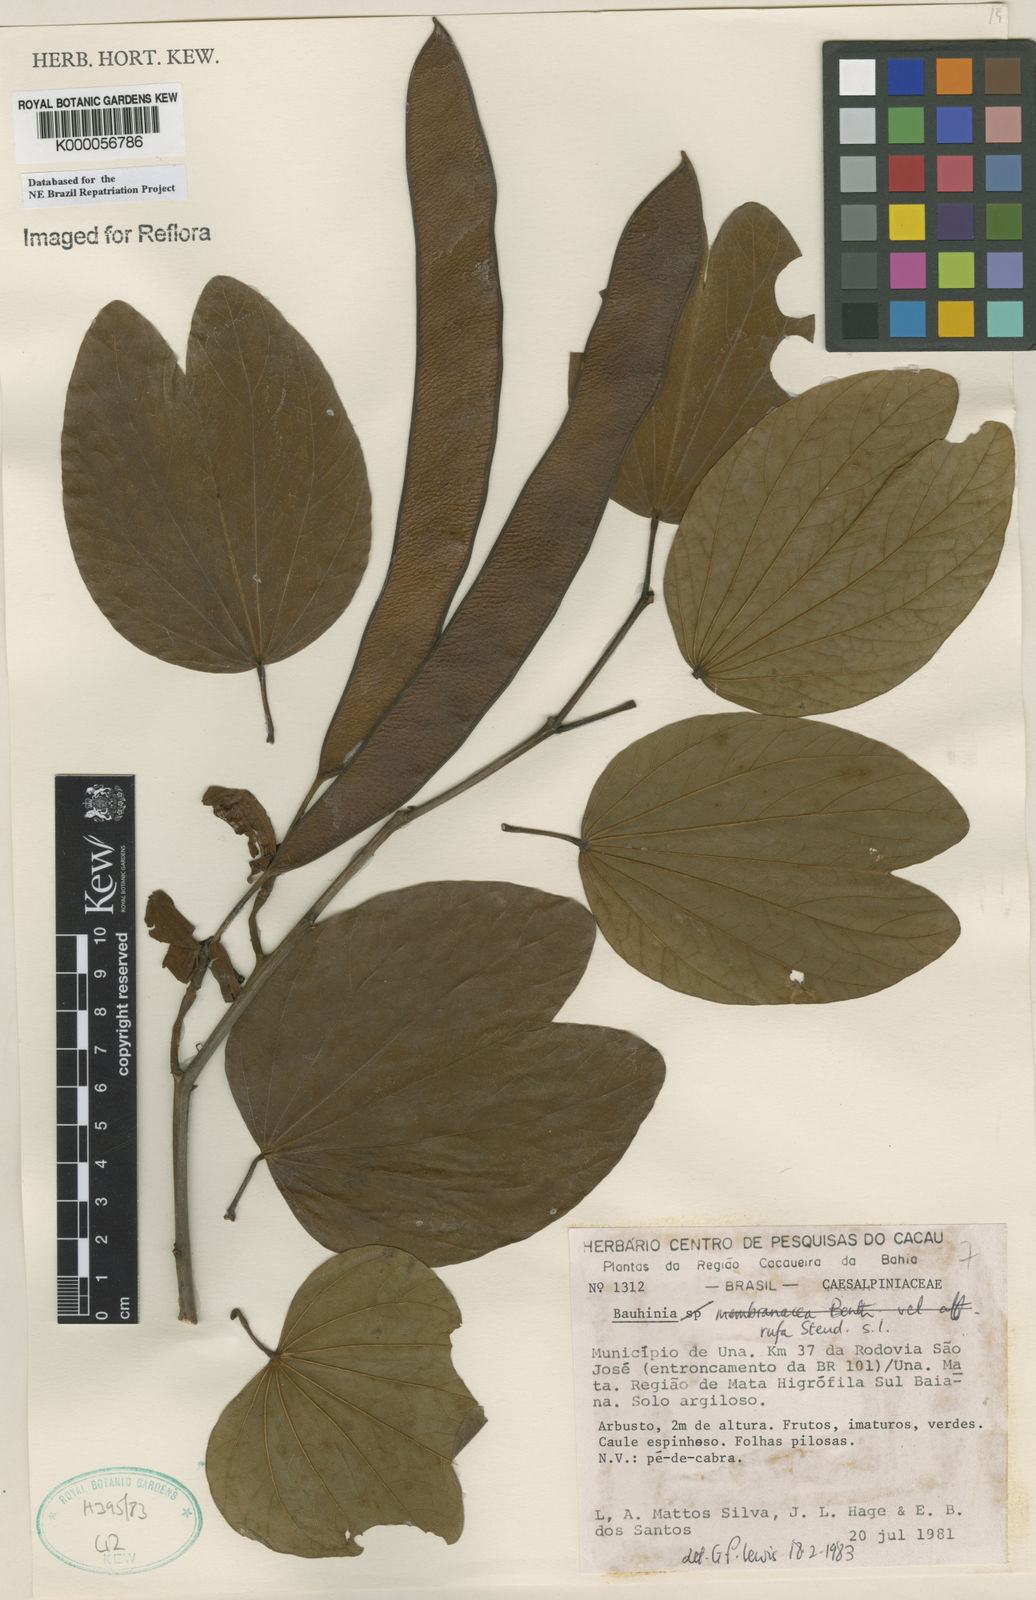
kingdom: Plantae
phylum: Tracheophyta
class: Magnoliopsida
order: Fabales
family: Fabaceae
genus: Bauhinia
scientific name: Bauhinia rufa
